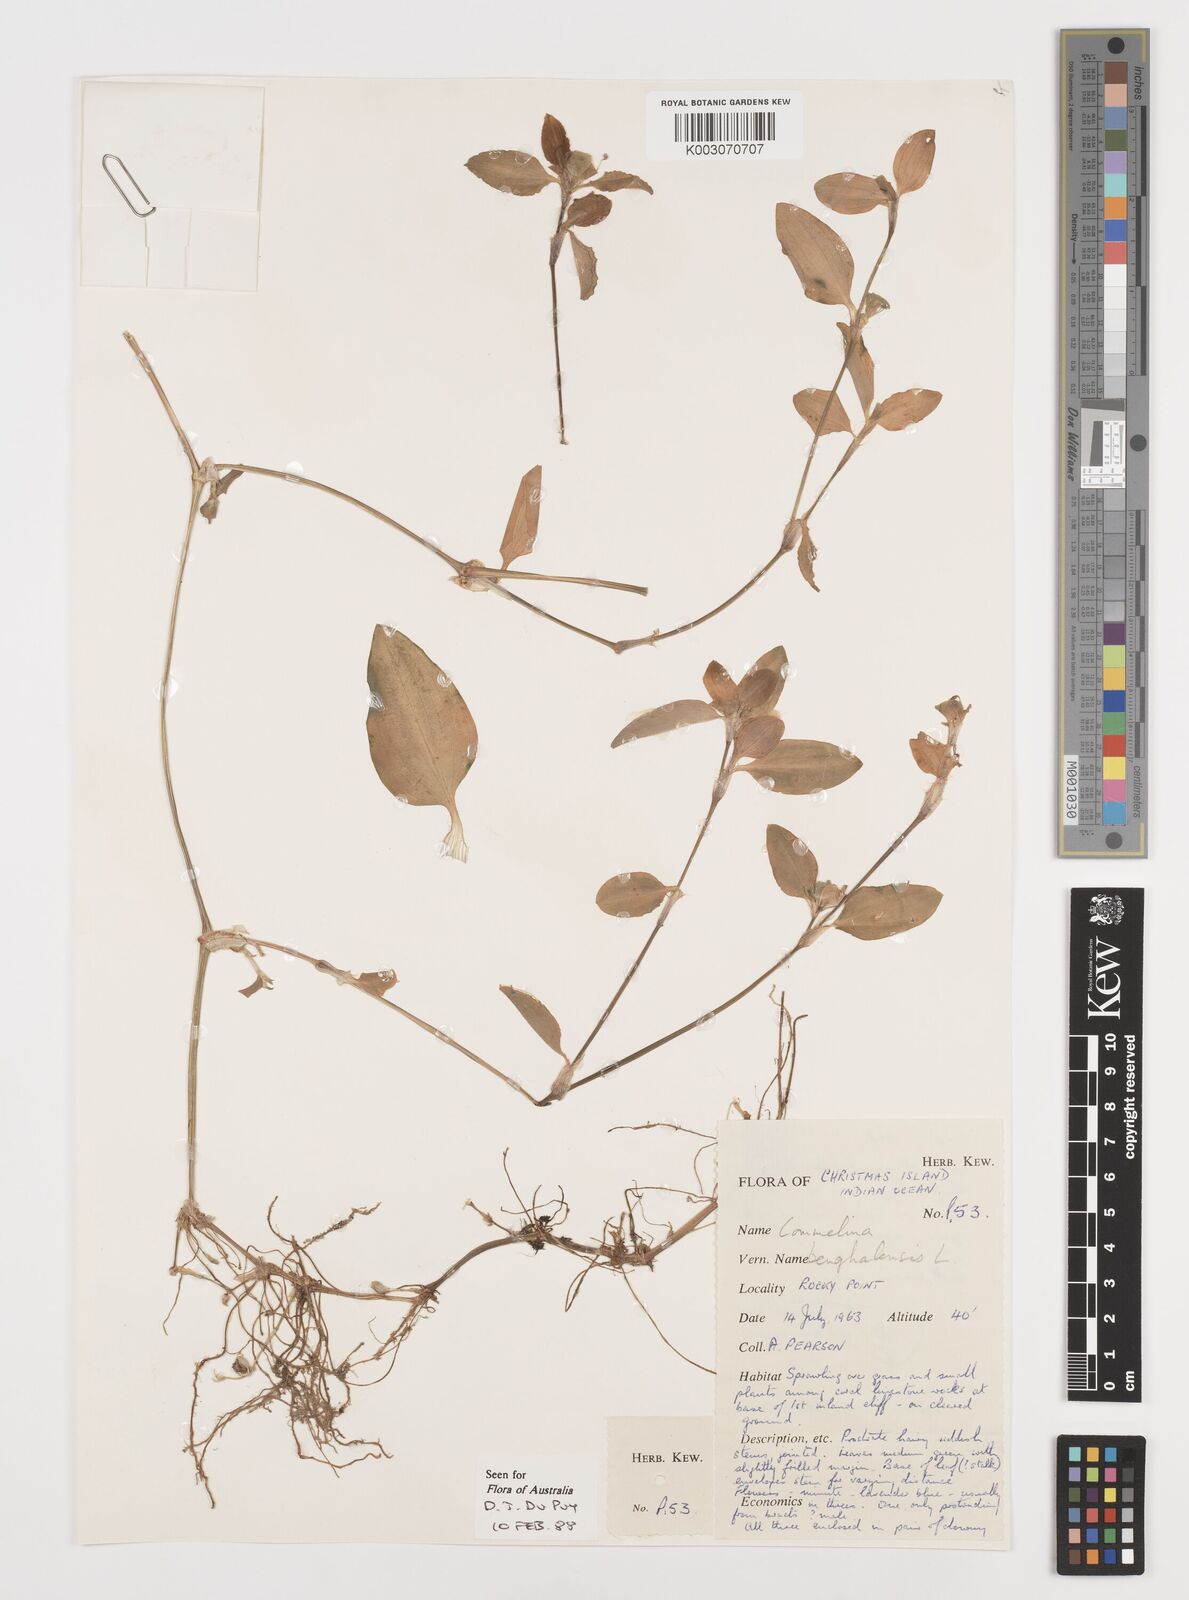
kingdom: Plantae
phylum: Tracheophyta
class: Liliopsida
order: Commelinales
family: Commelinaceae
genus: Commelina
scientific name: Commelina benghalensis
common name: Jio
